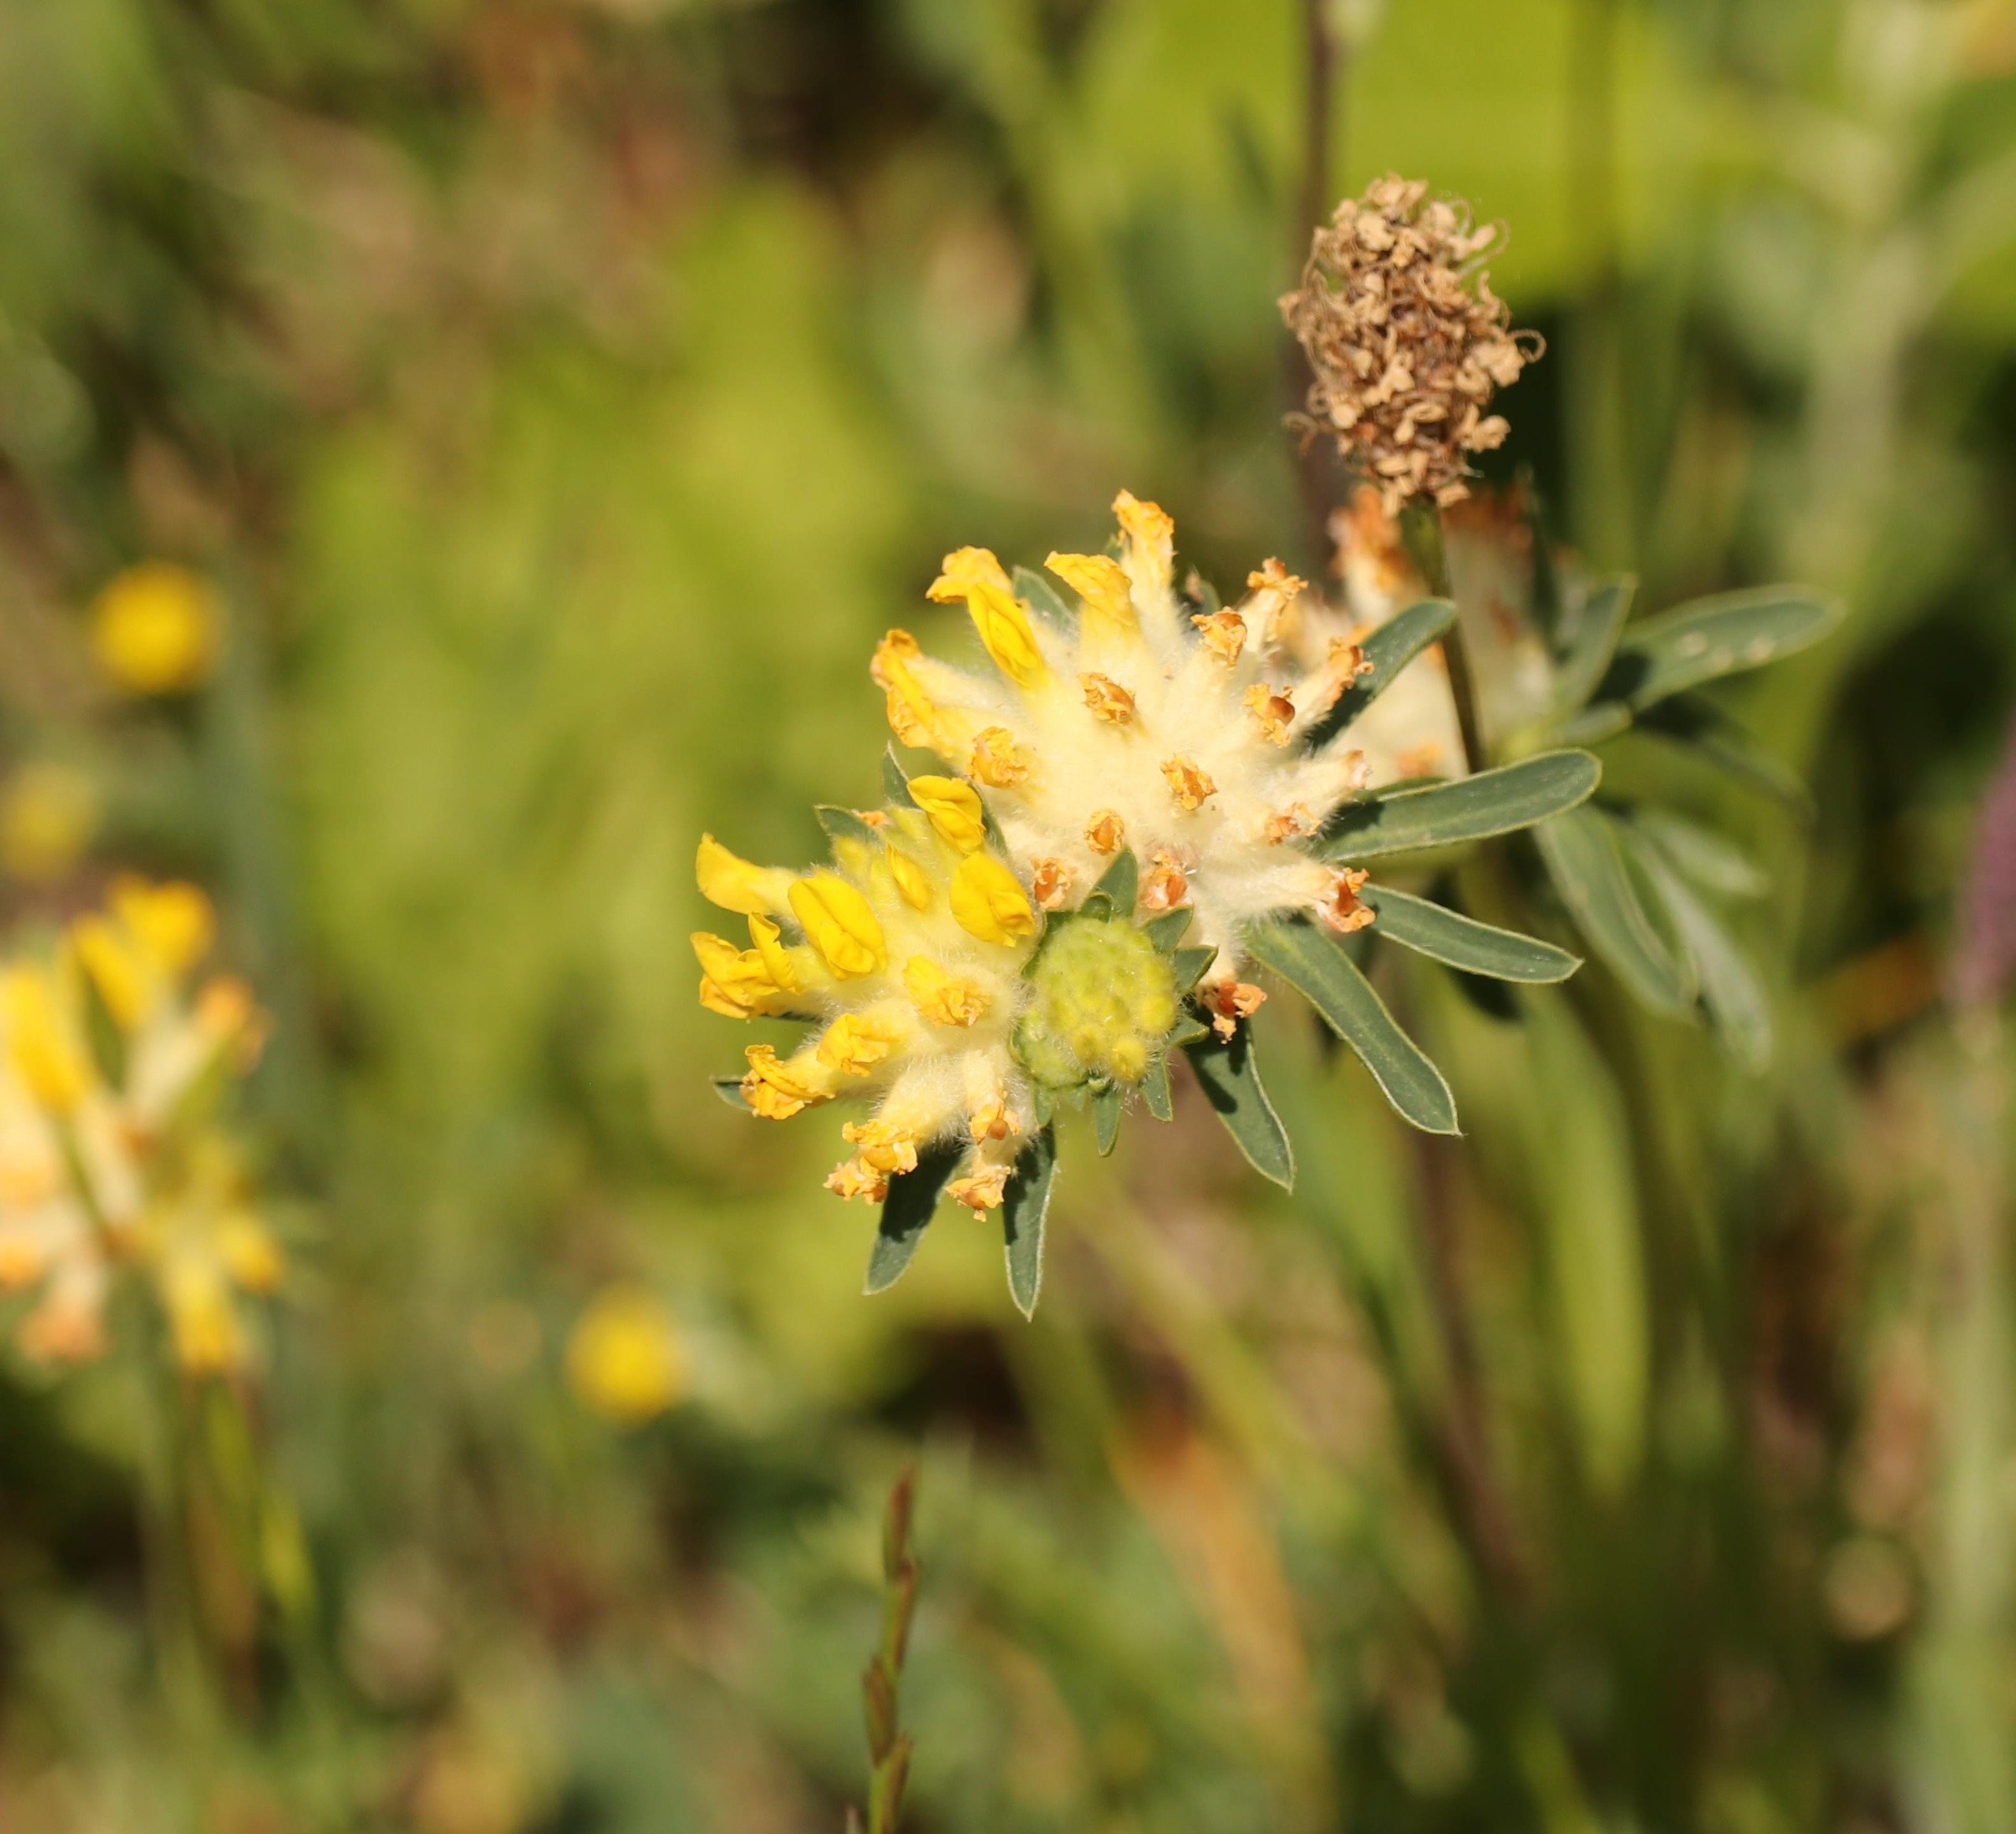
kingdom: Plantae
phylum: Tracheophyta
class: Magnoliopsida
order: Fabales
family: Fabaceae
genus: Anthyllis
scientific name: Anthyllis vulneraria
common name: Rundbælg
